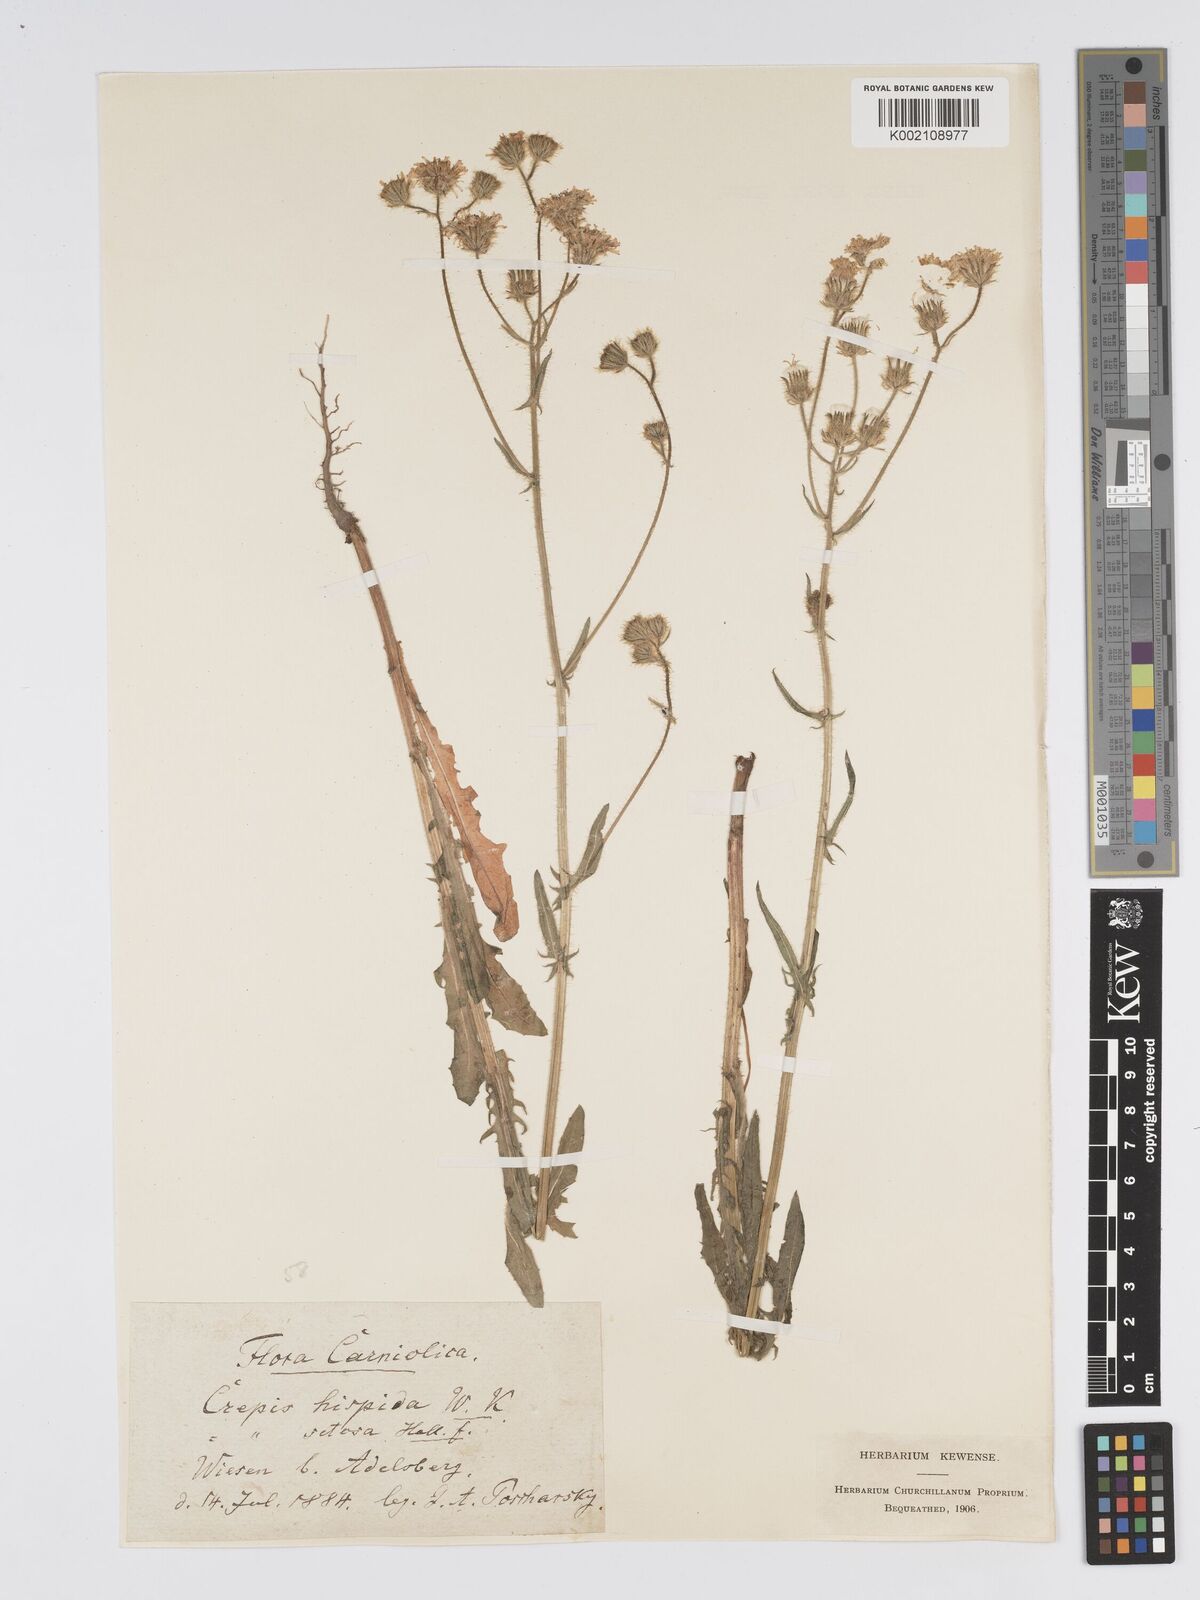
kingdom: Plantae
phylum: Tracheophyta
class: Magnoliopsida
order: Asterales
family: Asteraceae
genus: Crepis
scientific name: Crepis setosa
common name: Bristly hawk's-beard
